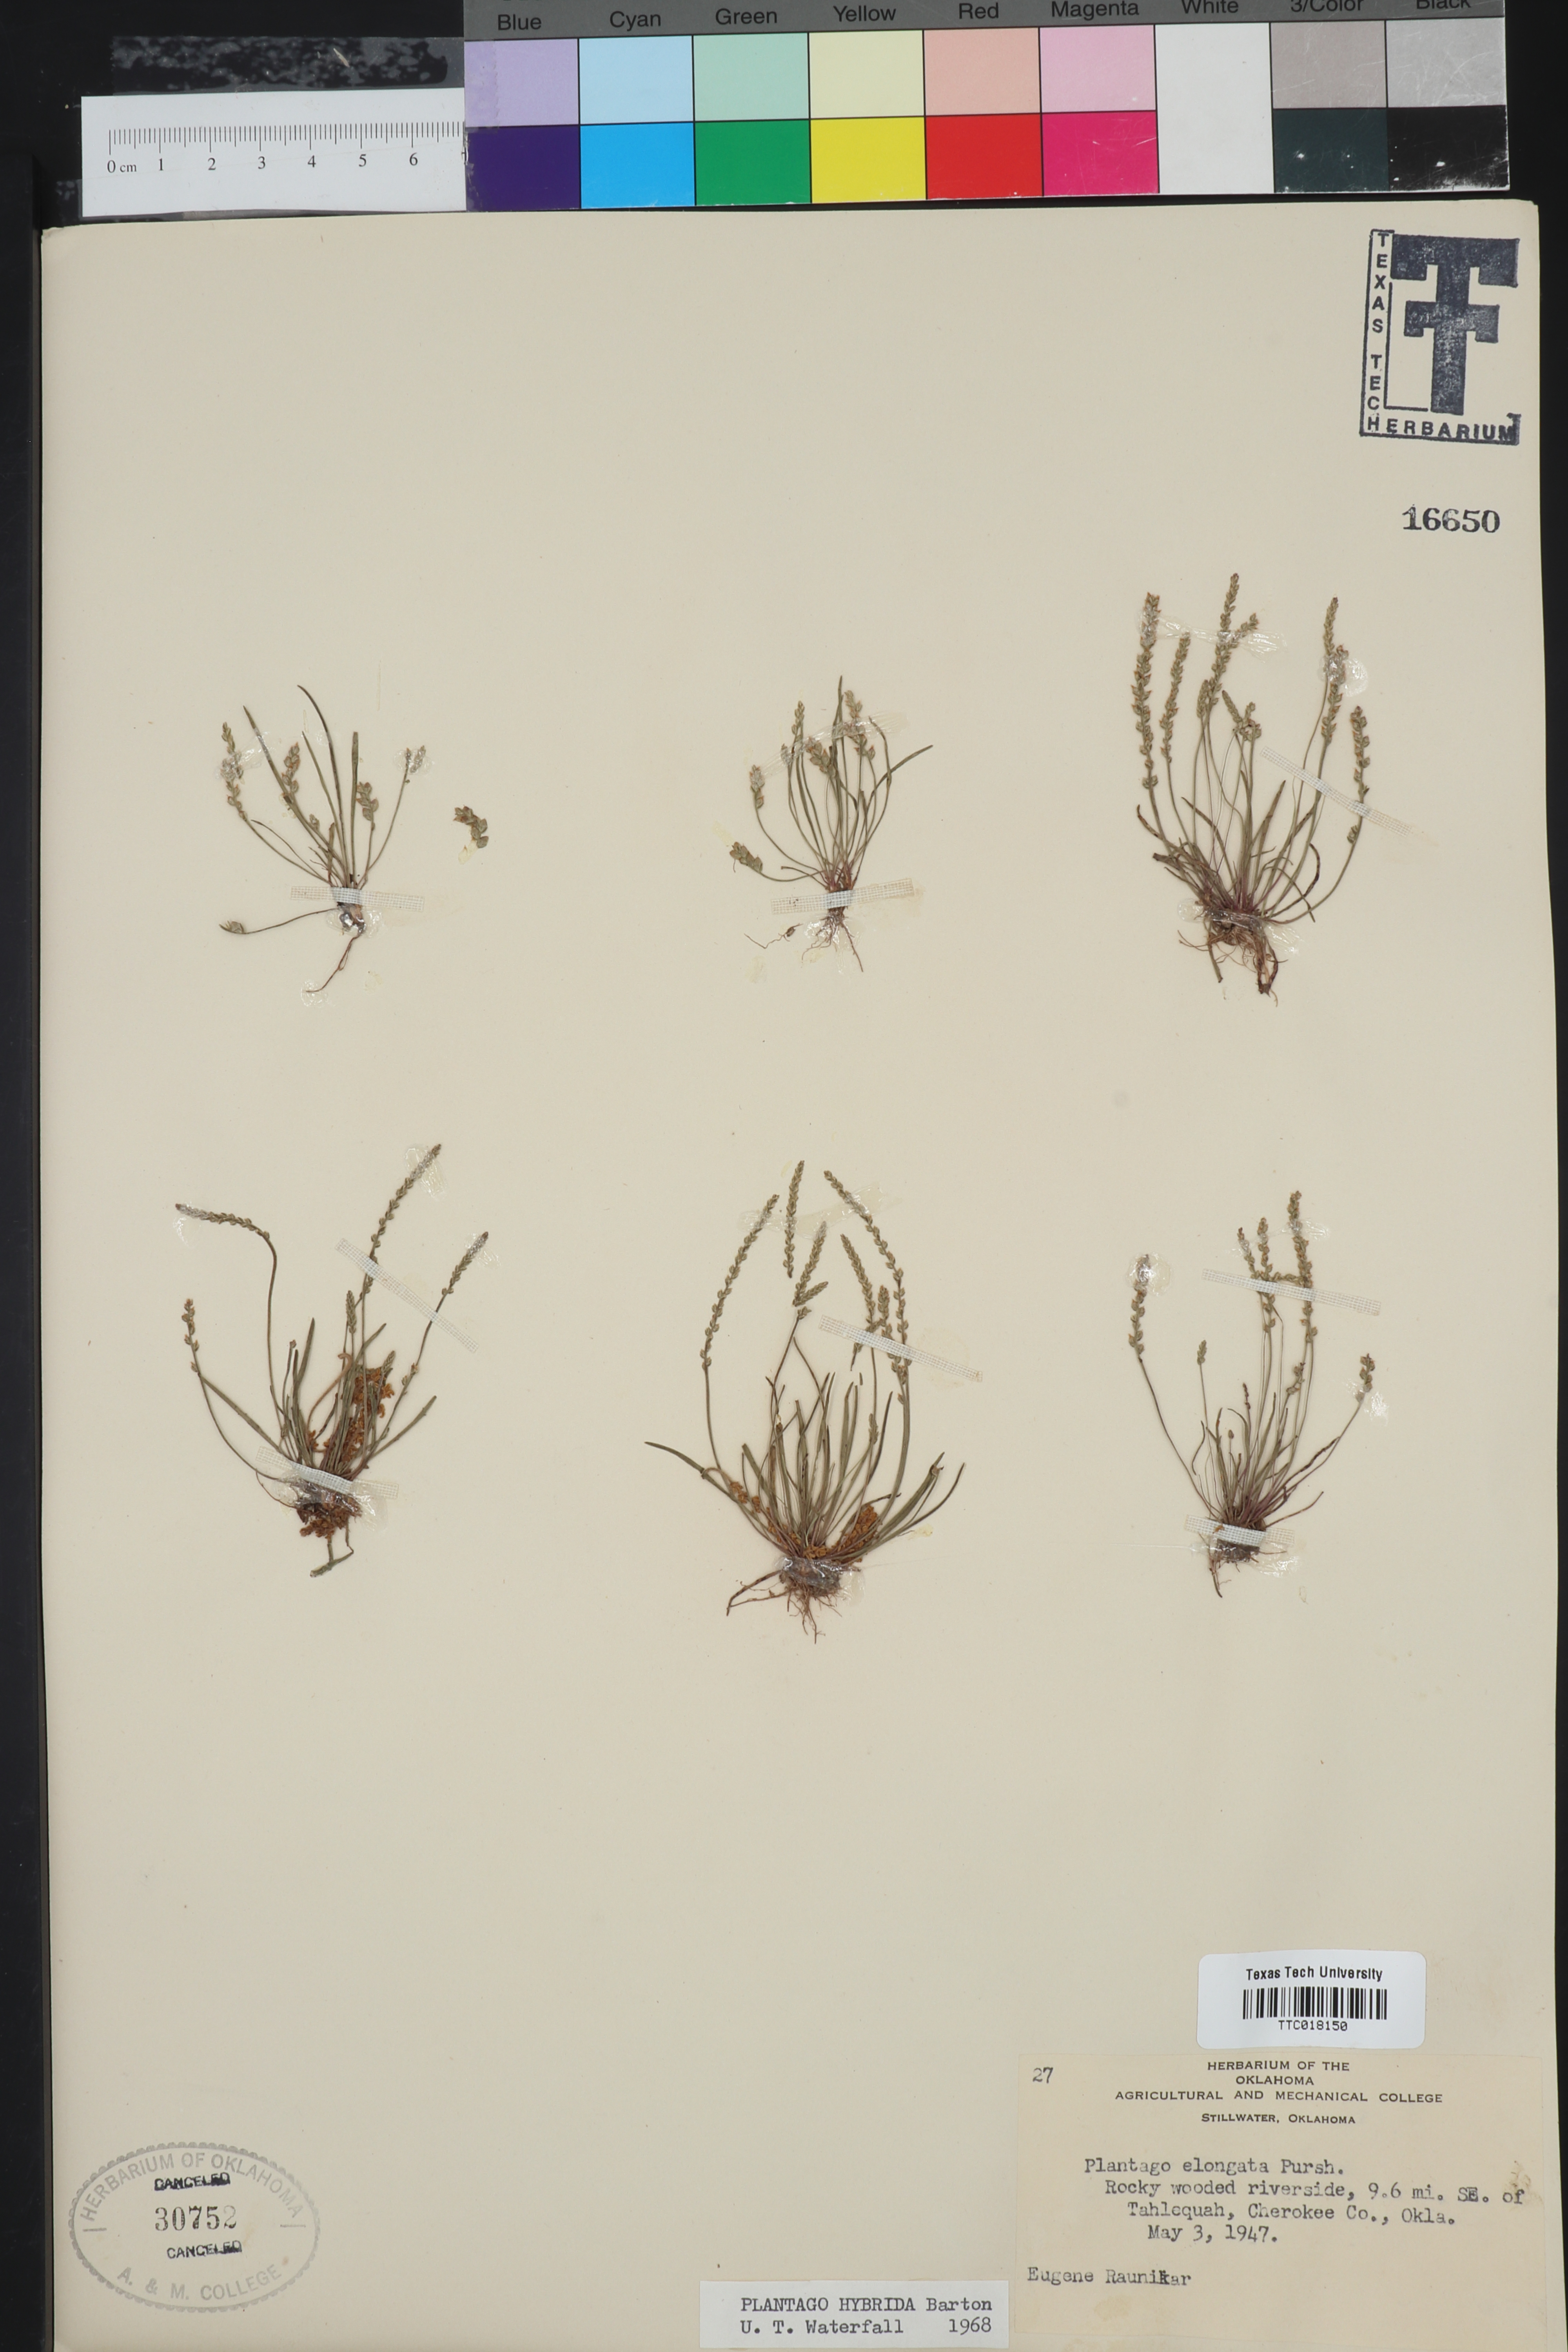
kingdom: Plantae
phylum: Tracheophyta
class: Magnoliopsida
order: Lamiales
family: Plantaginaceae
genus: Plantago
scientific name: Plantago elongata
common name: Linear-leaved plantain
